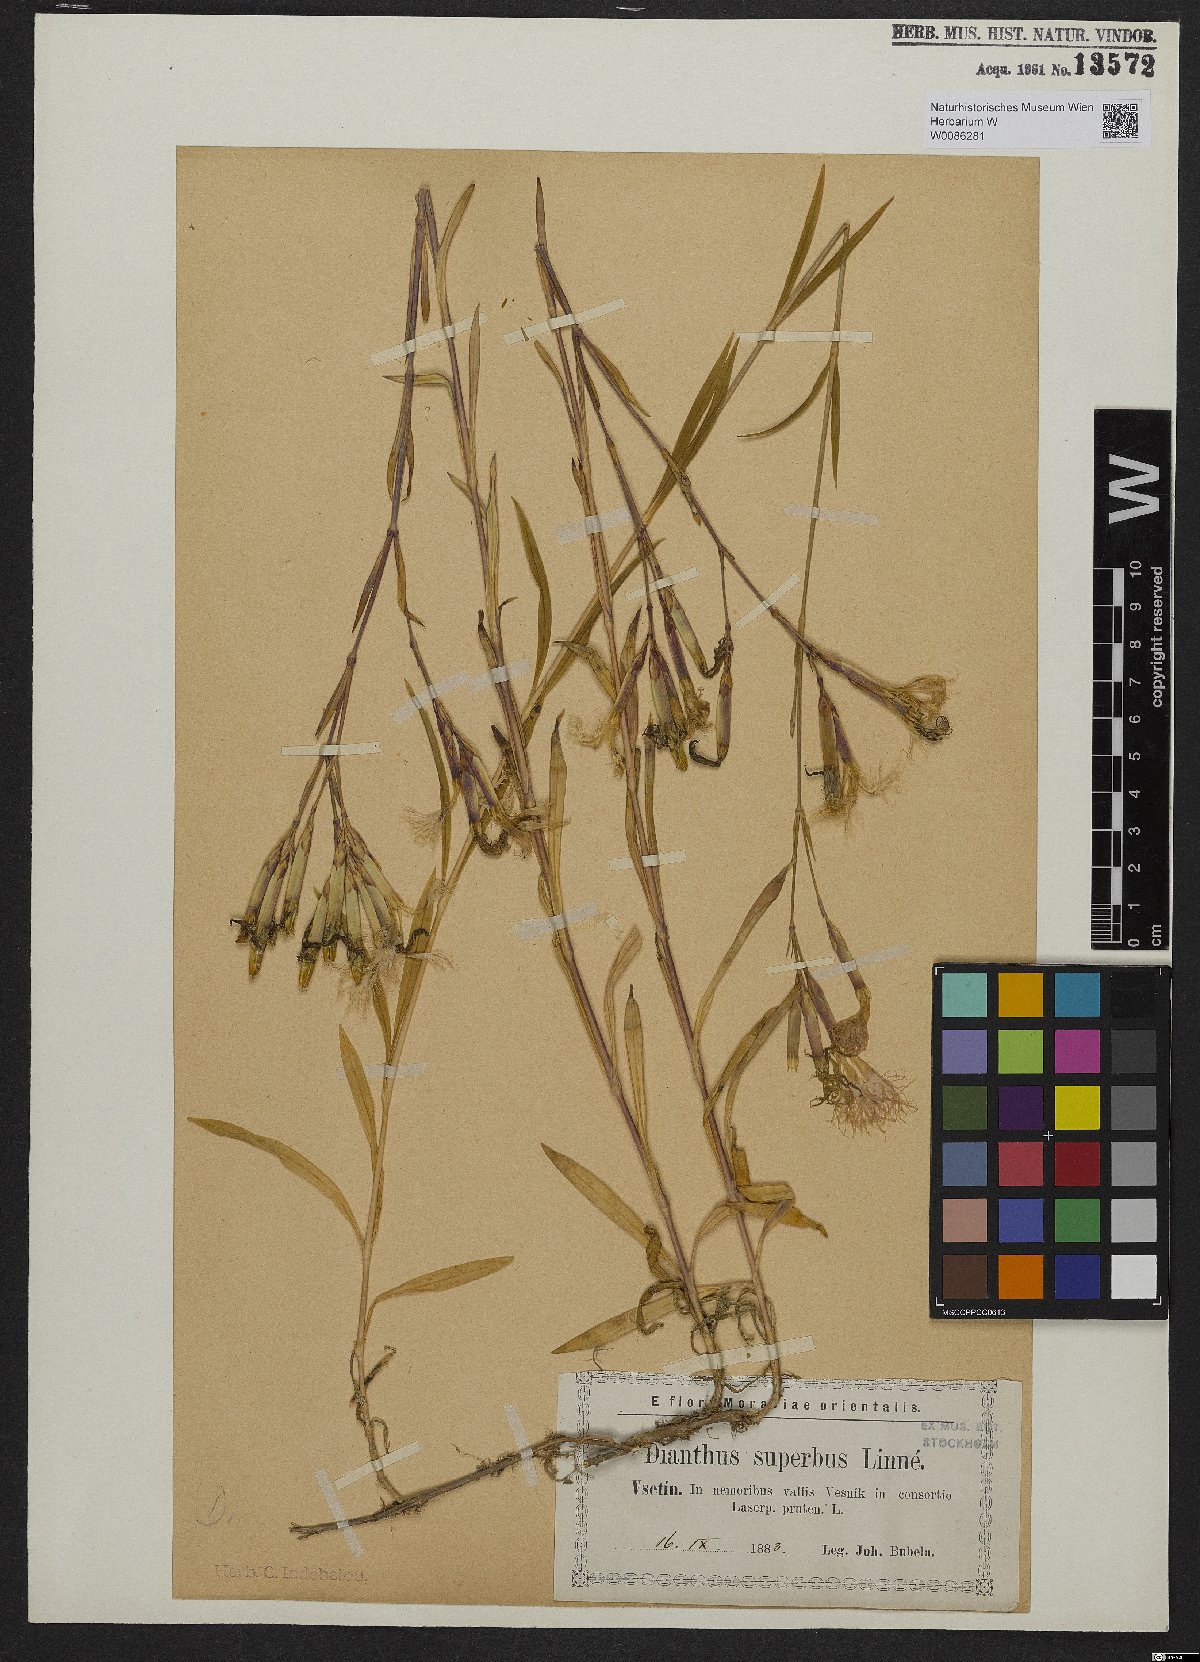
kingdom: Plantae
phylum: Tracheophyta
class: Magnoliopsida
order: Caryophyllales
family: Caryophyllaceae
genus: Dianthus
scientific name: Dianthus superbus
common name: Fringed pink
